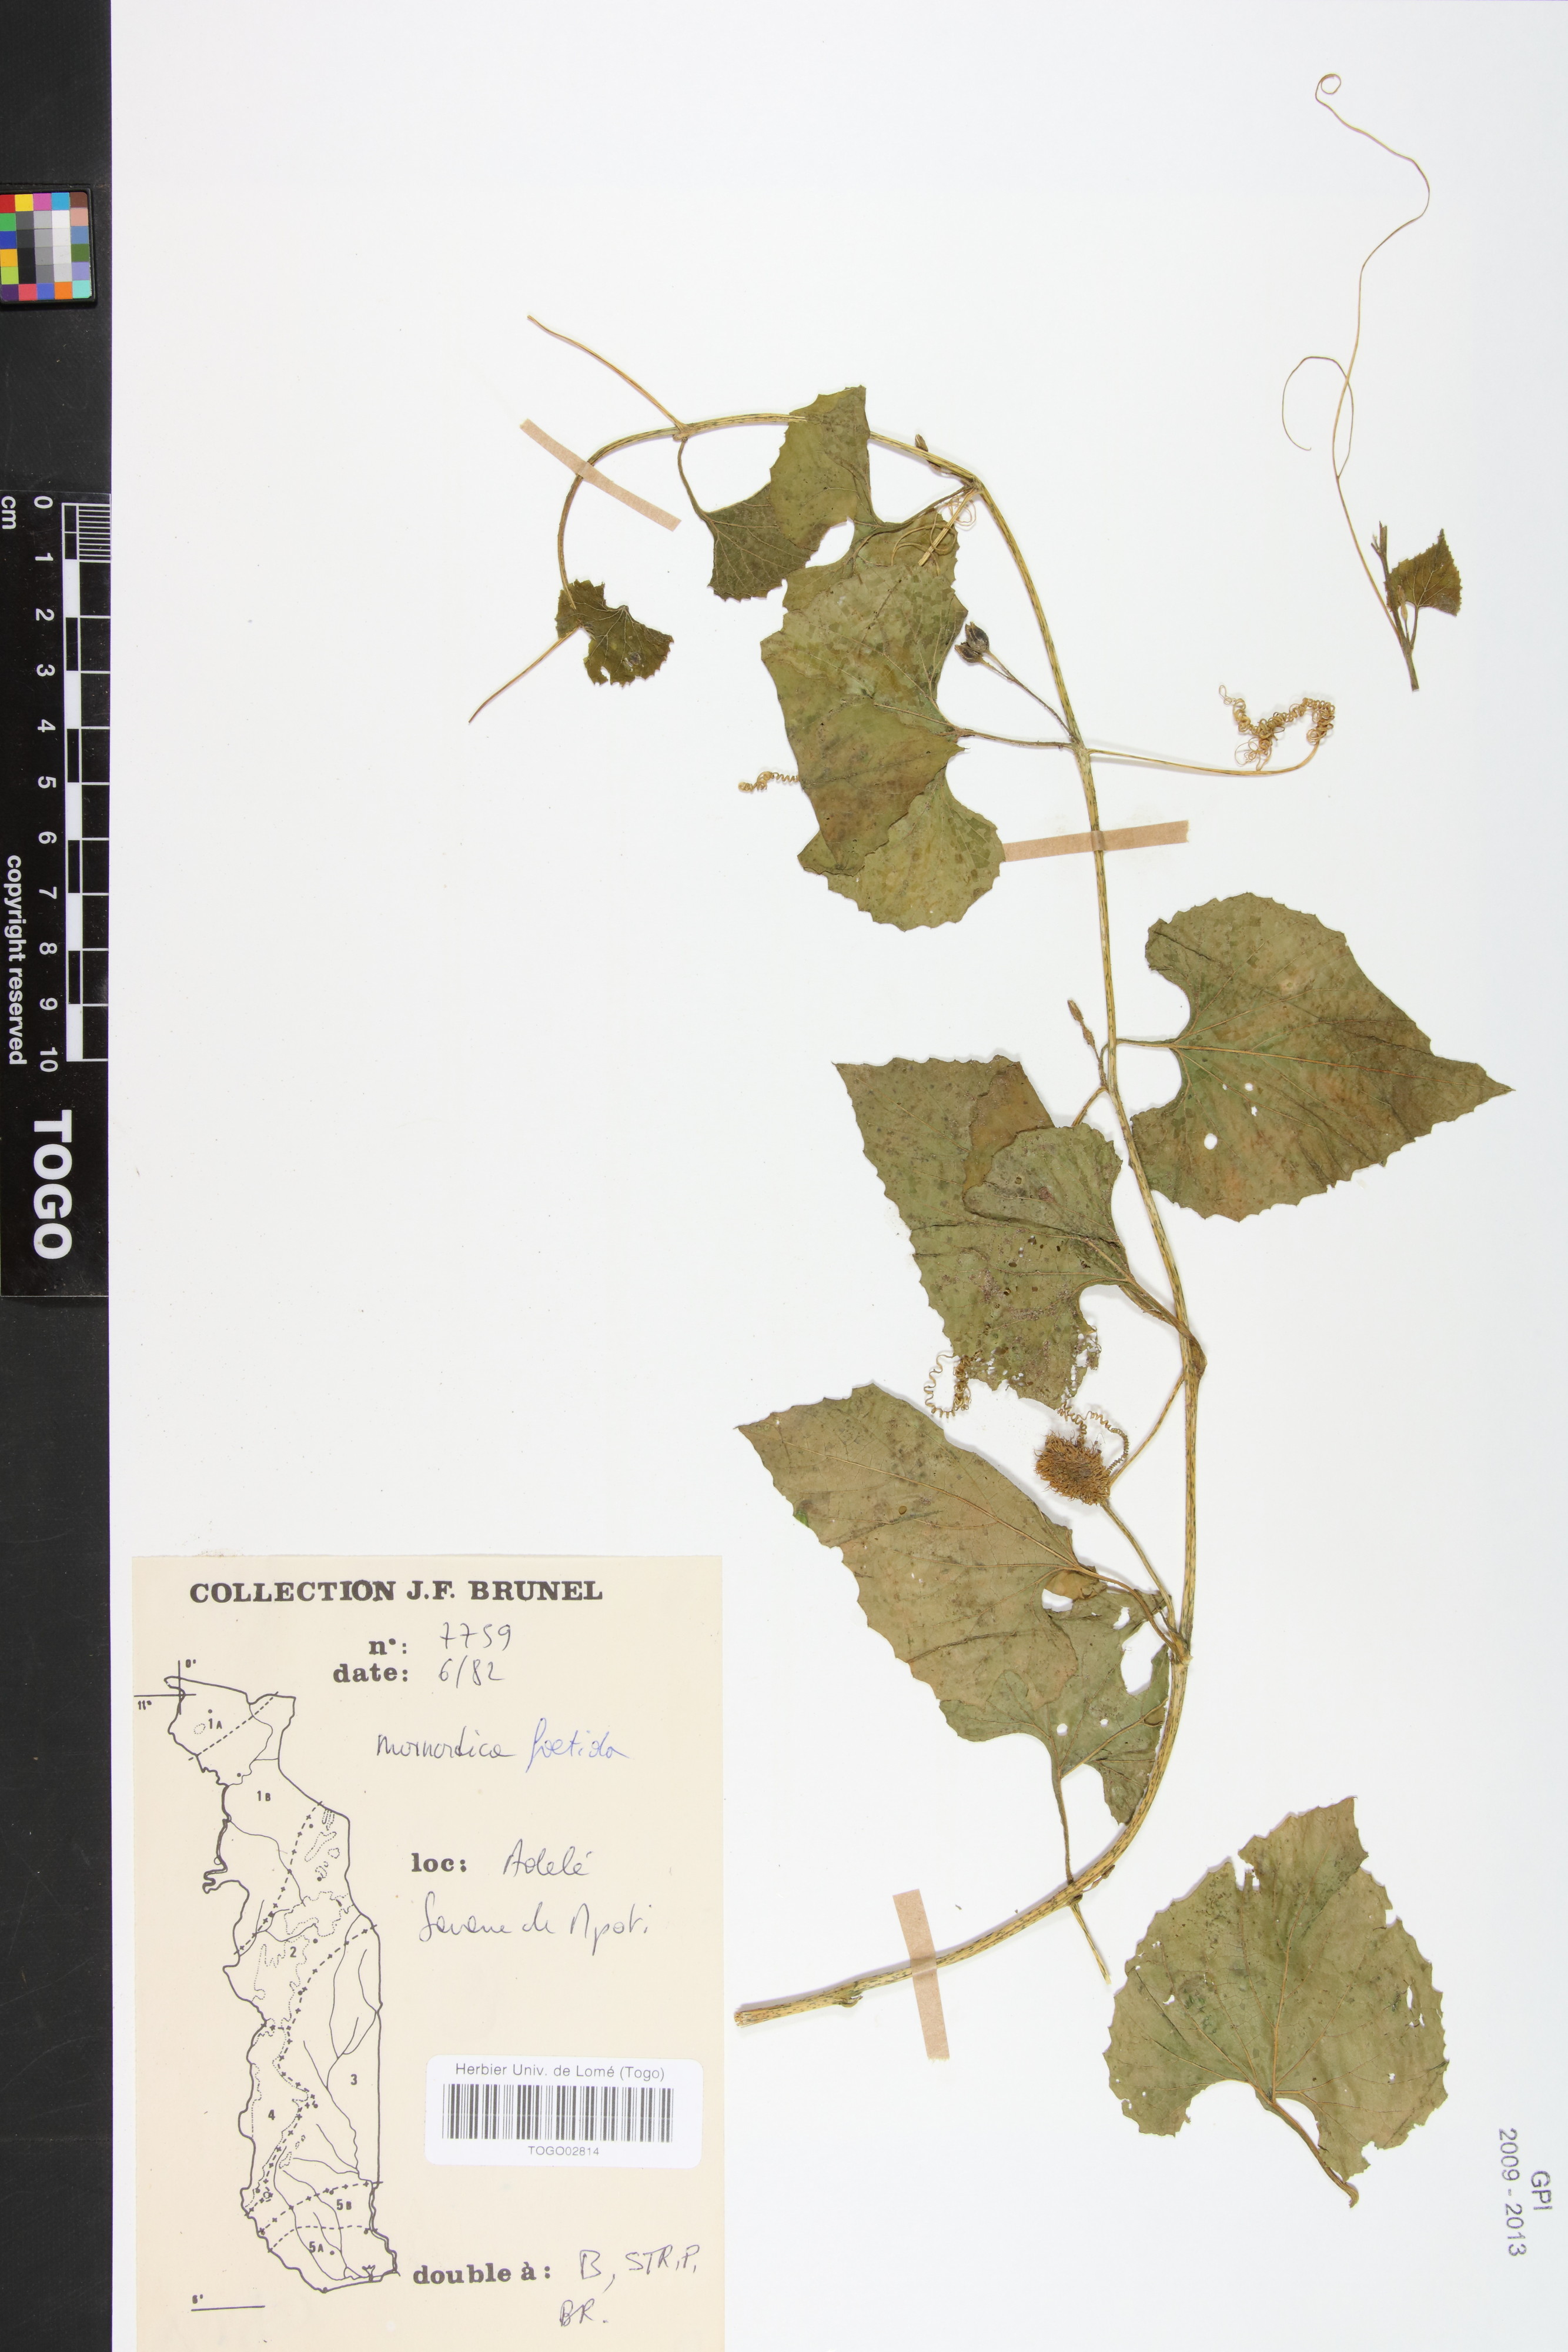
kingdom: Plantae
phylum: Tracheophyta
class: Magnoliopsida
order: Cucurbitales
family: Cucurbitaceae
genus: Momordica
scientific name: Momordica foetida
